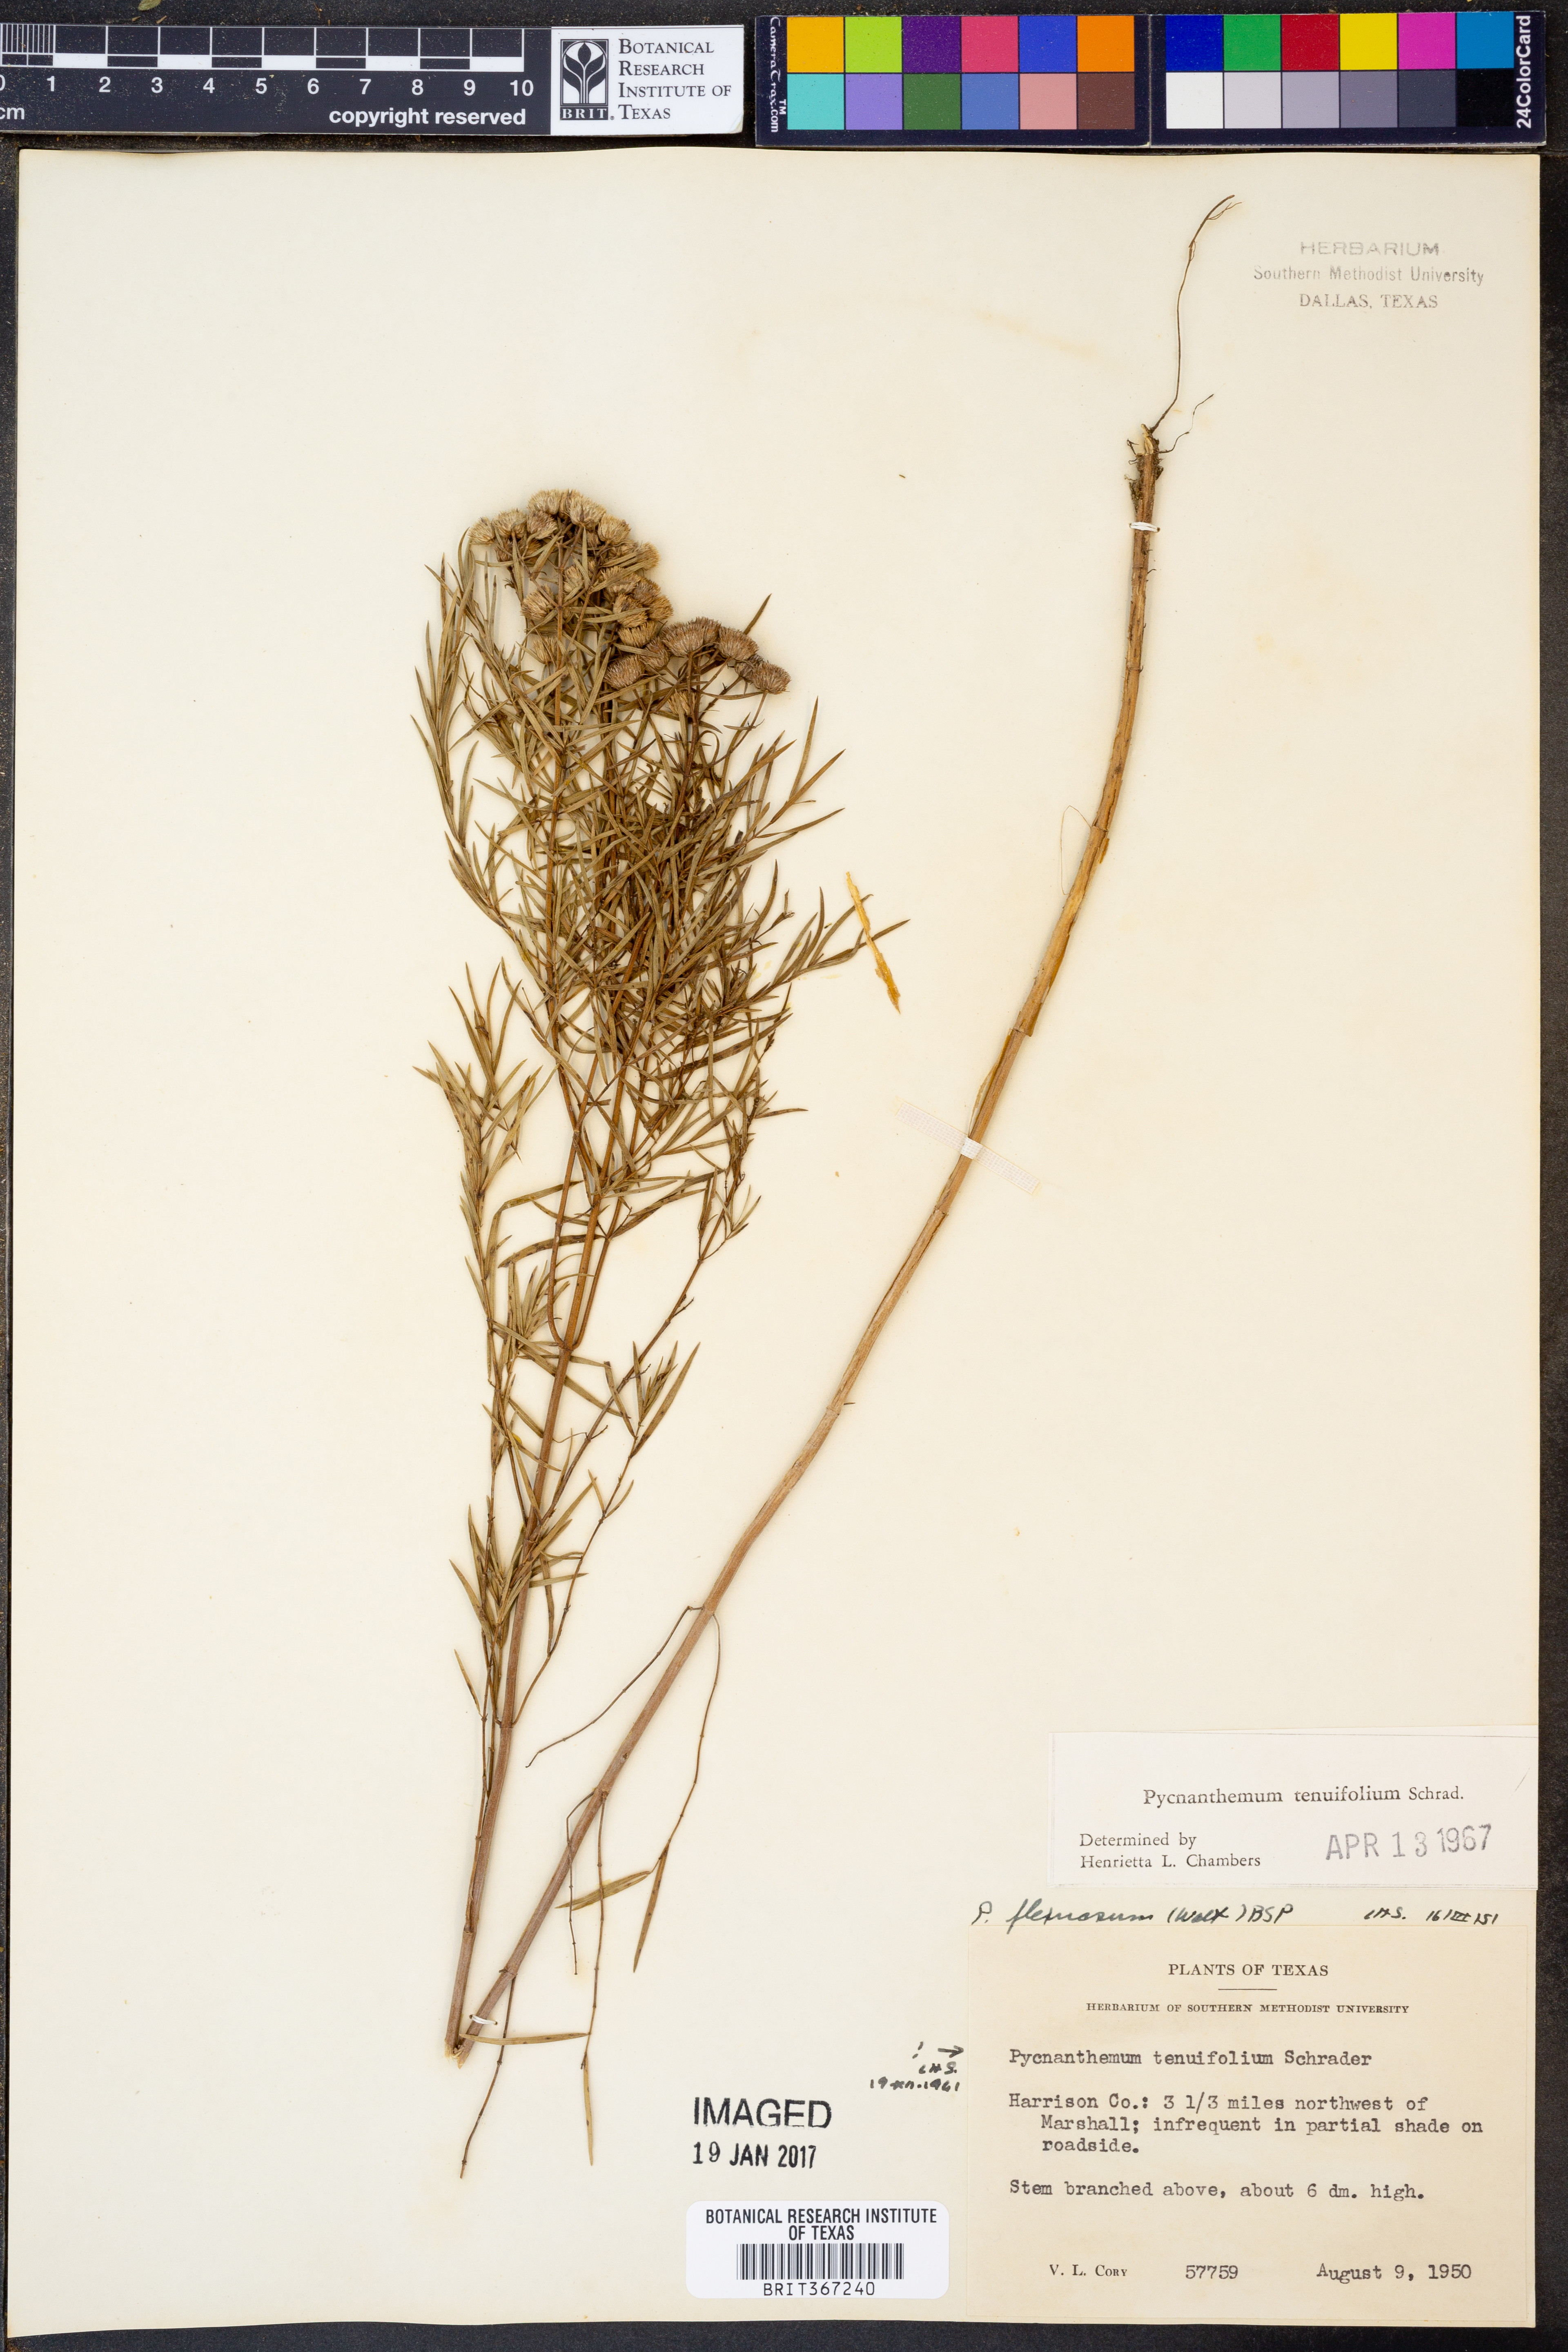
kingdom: Plantae
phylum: Tracheophyta
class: Magnoliopsida
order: Lamiales
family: Lamiaceae
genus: Pycnanthemum
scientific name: Pycnanthemum tenuifolium
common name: Narrow-leaf mountain-mint
